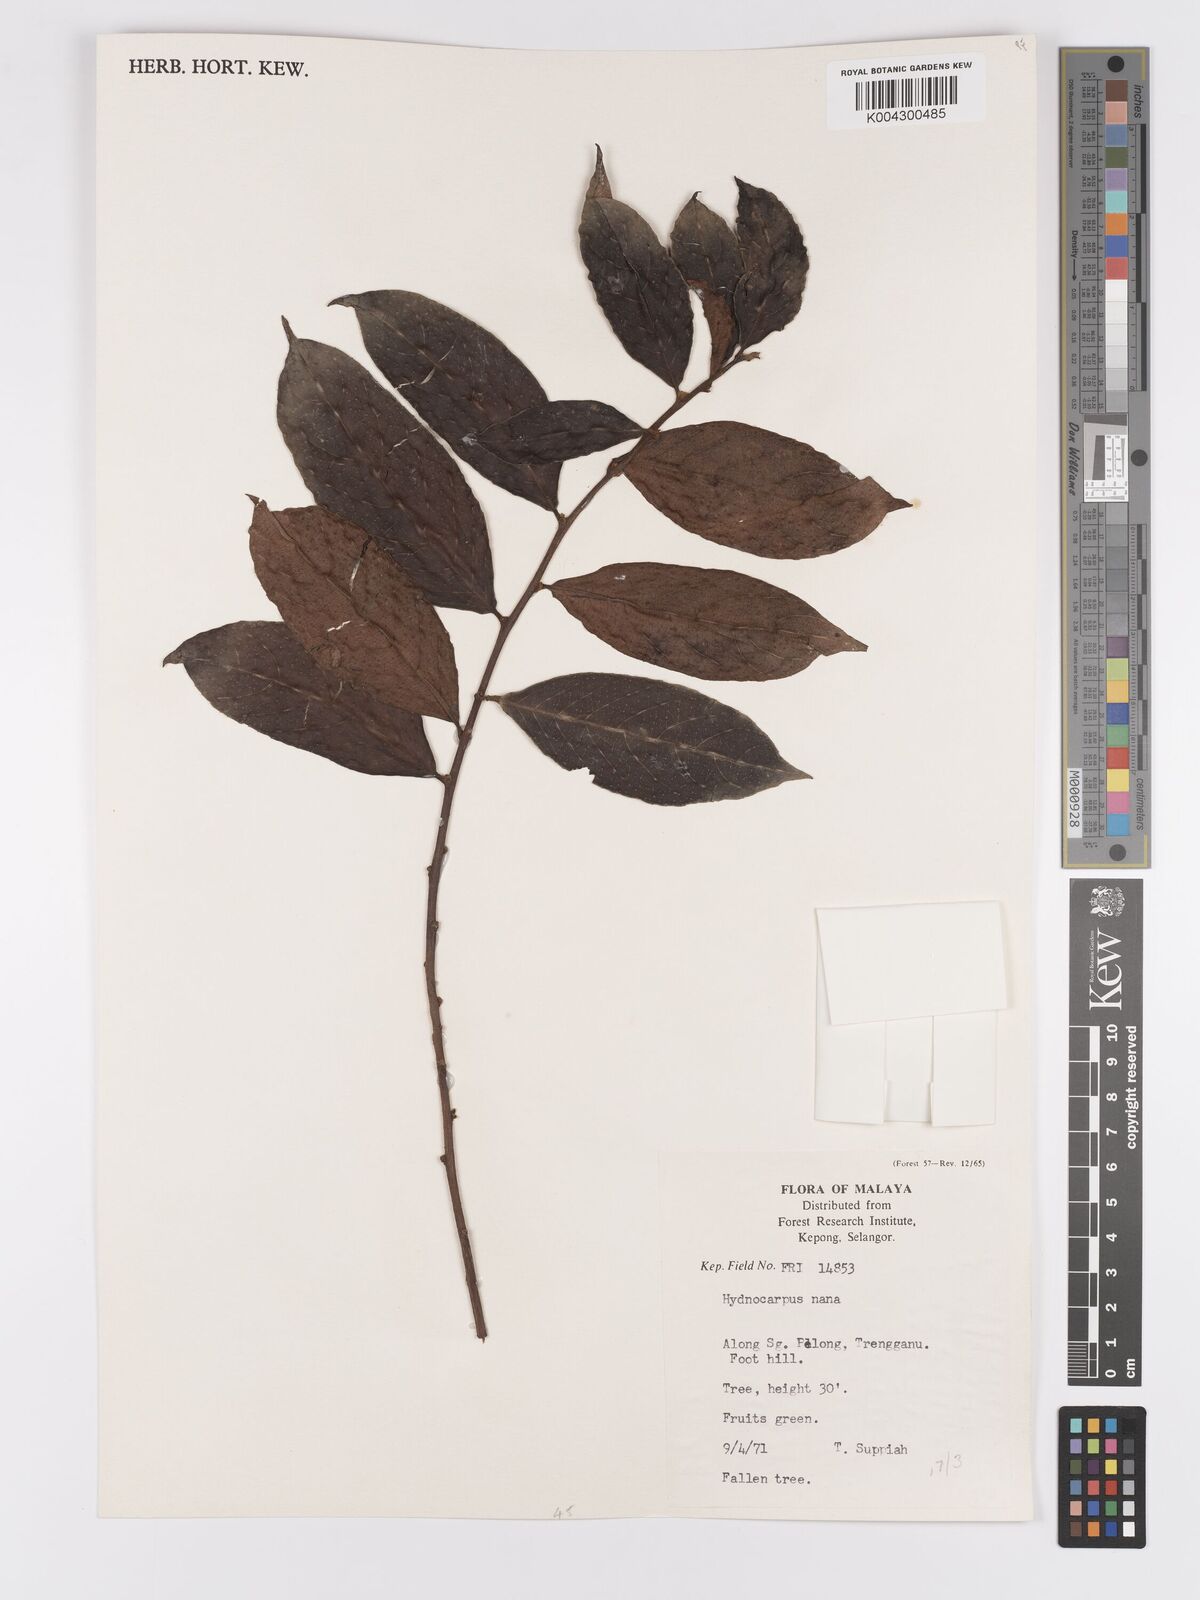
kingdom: Plantae
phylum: Tracheophyta
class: Magnoliopsida
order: Malpighiales
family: Achariaceae
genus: Hydnocarpus
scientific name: Hydnocarpus nanus
